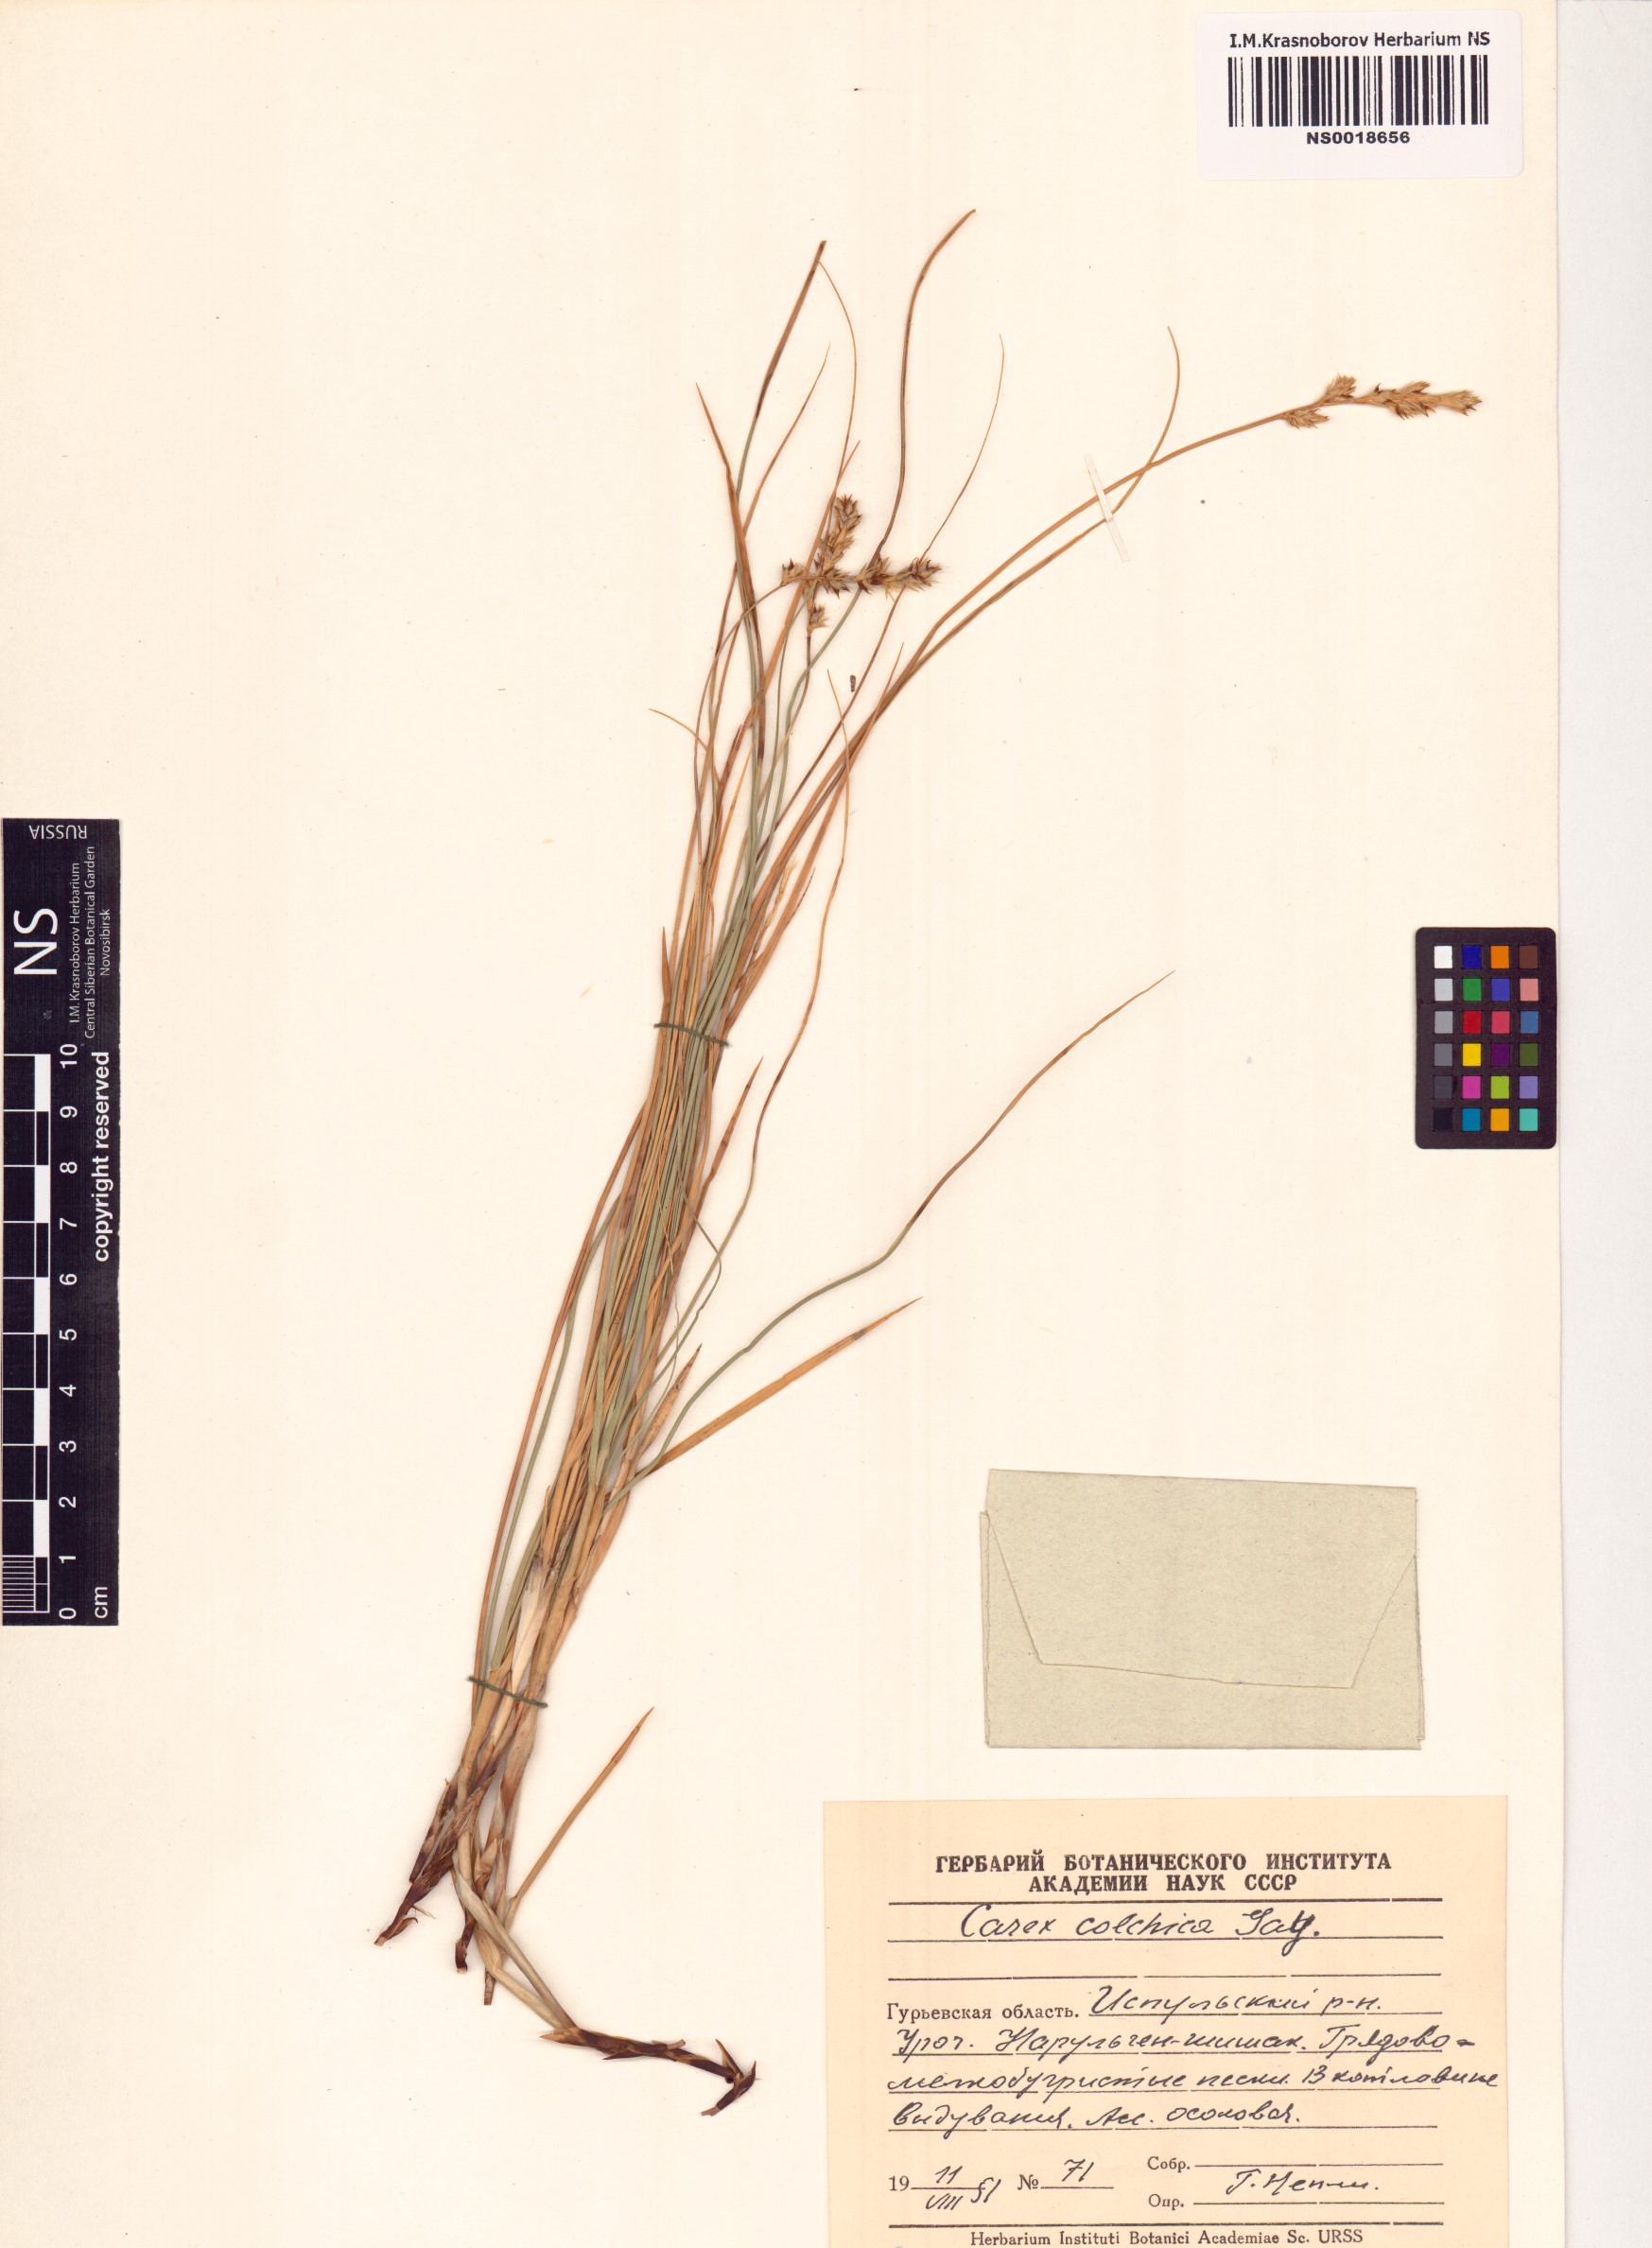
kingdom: Plantae
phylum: Tracheophyta
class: Liliopsida
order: Poales
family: Cyperaceae
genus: Carex
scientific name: Carex colchica
